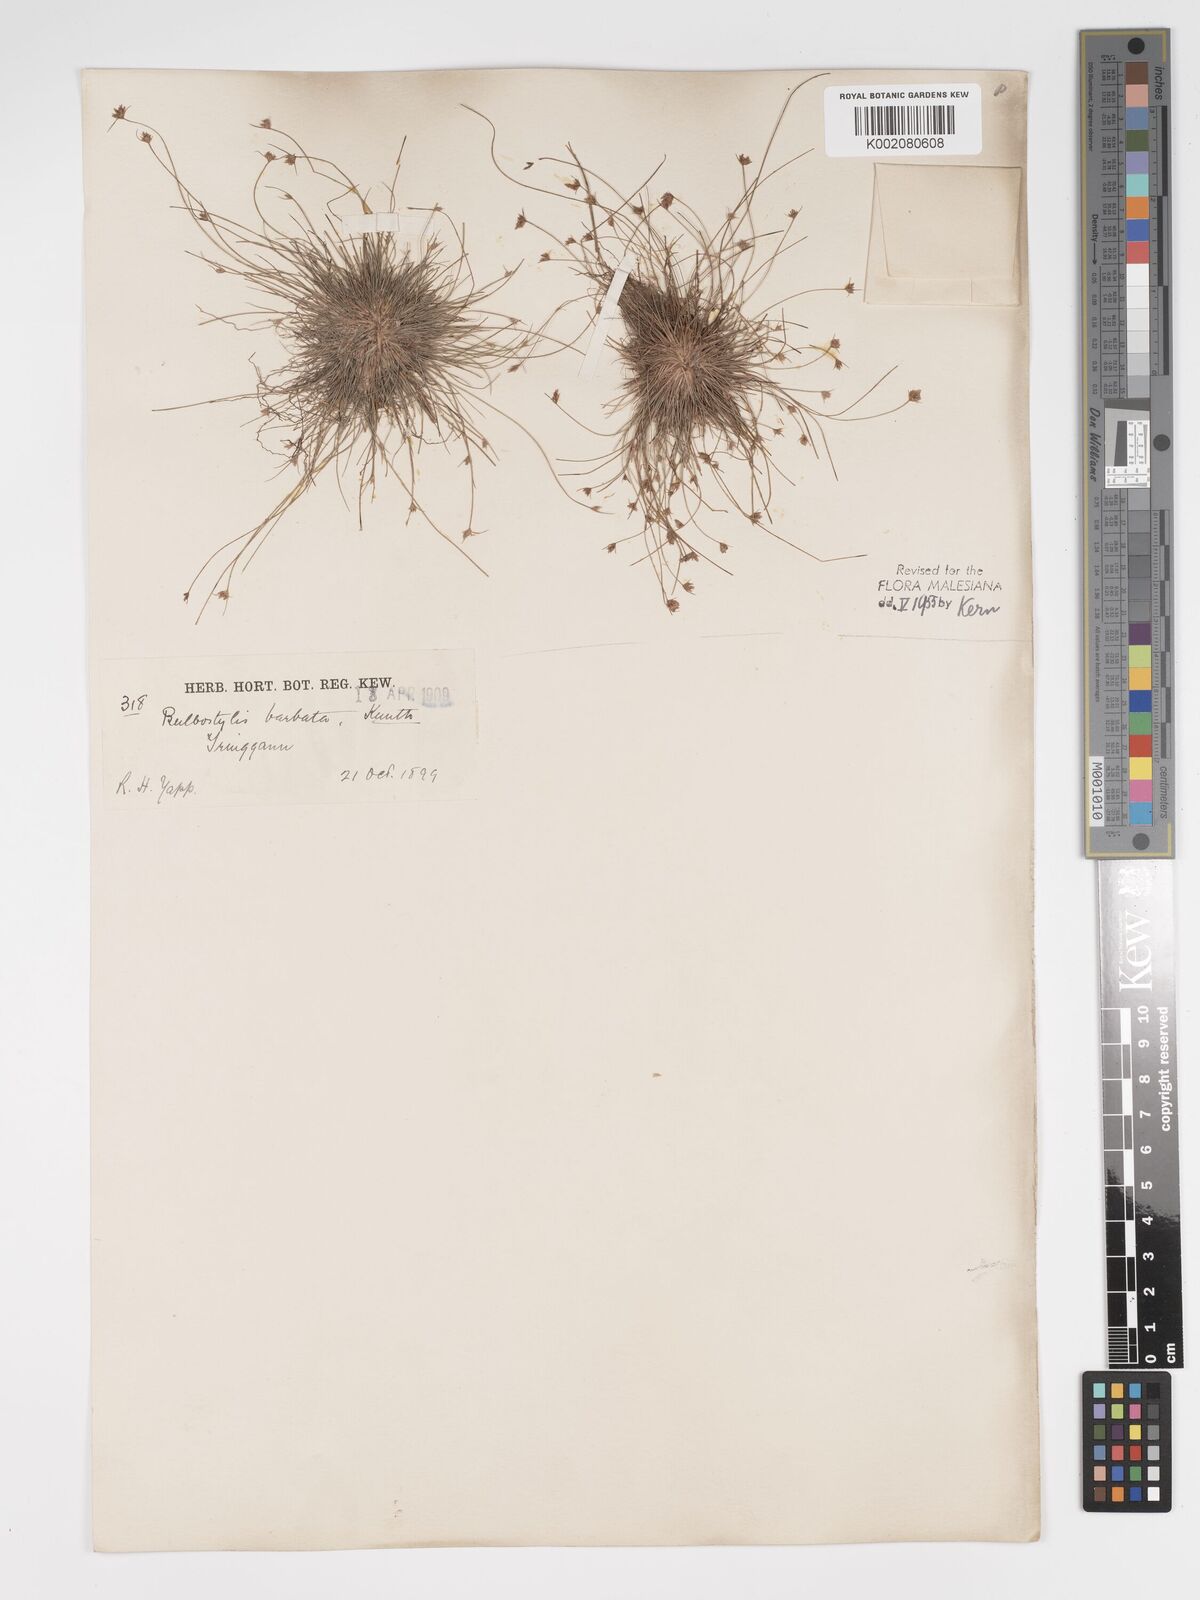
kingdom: Plantae
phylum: Tracheophyta
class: Liliopsida
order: Poales
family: Cyperaceae
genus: Bulbostylis
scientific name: Bulbostylis barbata
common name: Watergrass
